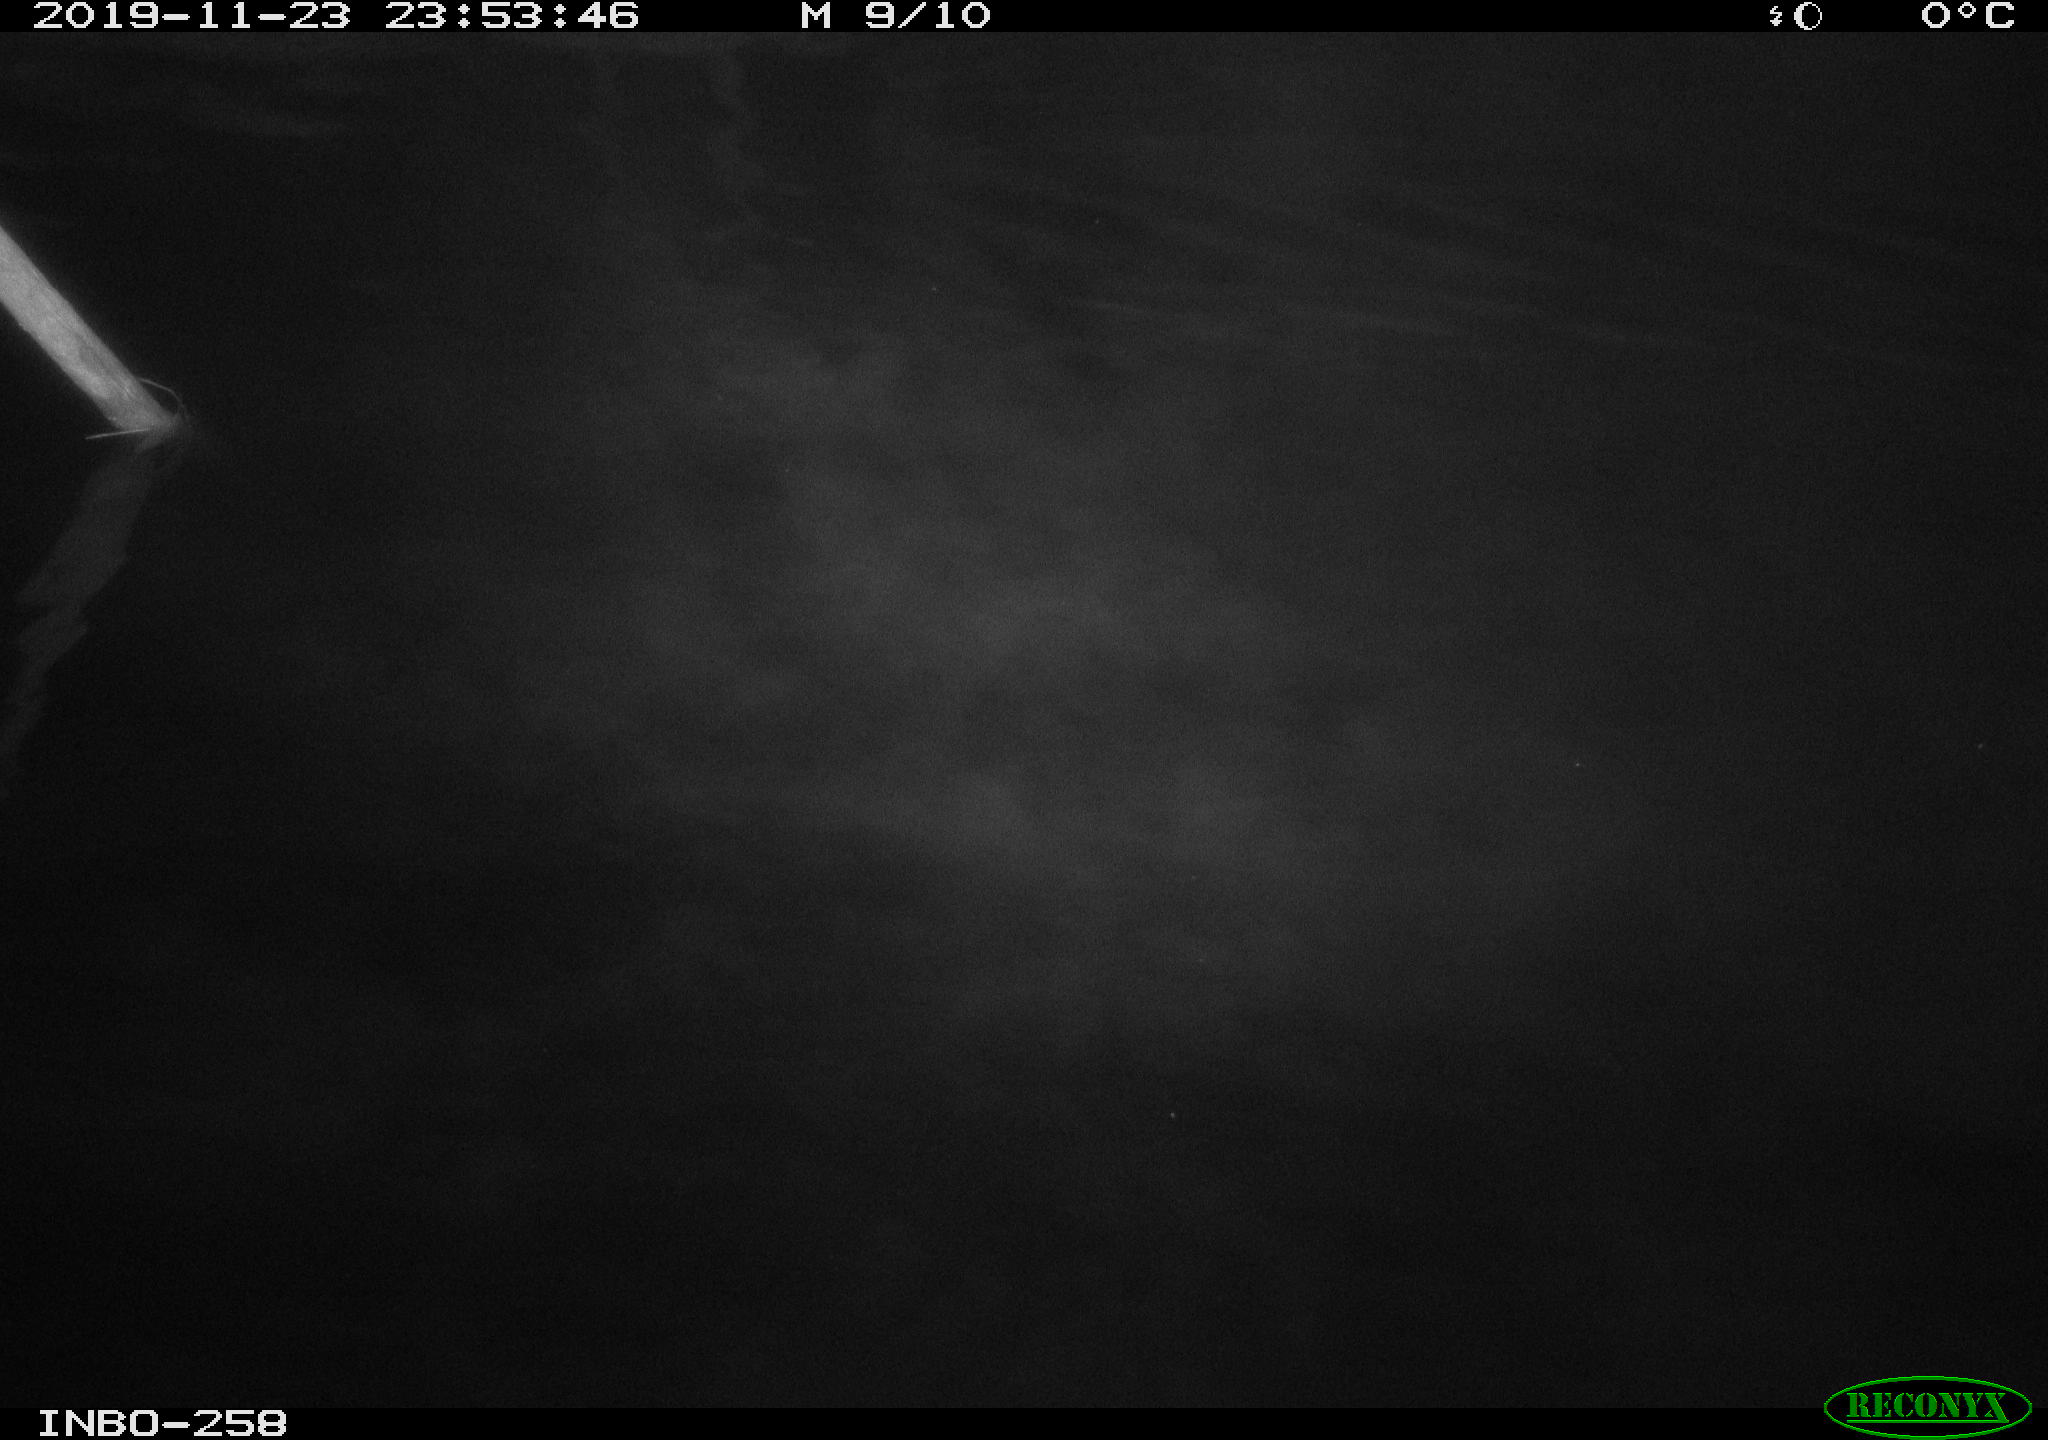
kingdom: Animalia
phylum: Chordata
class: Aves
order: Anseriformes
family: Anatidae
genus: Anas
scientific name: Anas platyrhynchos
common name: Mallard
